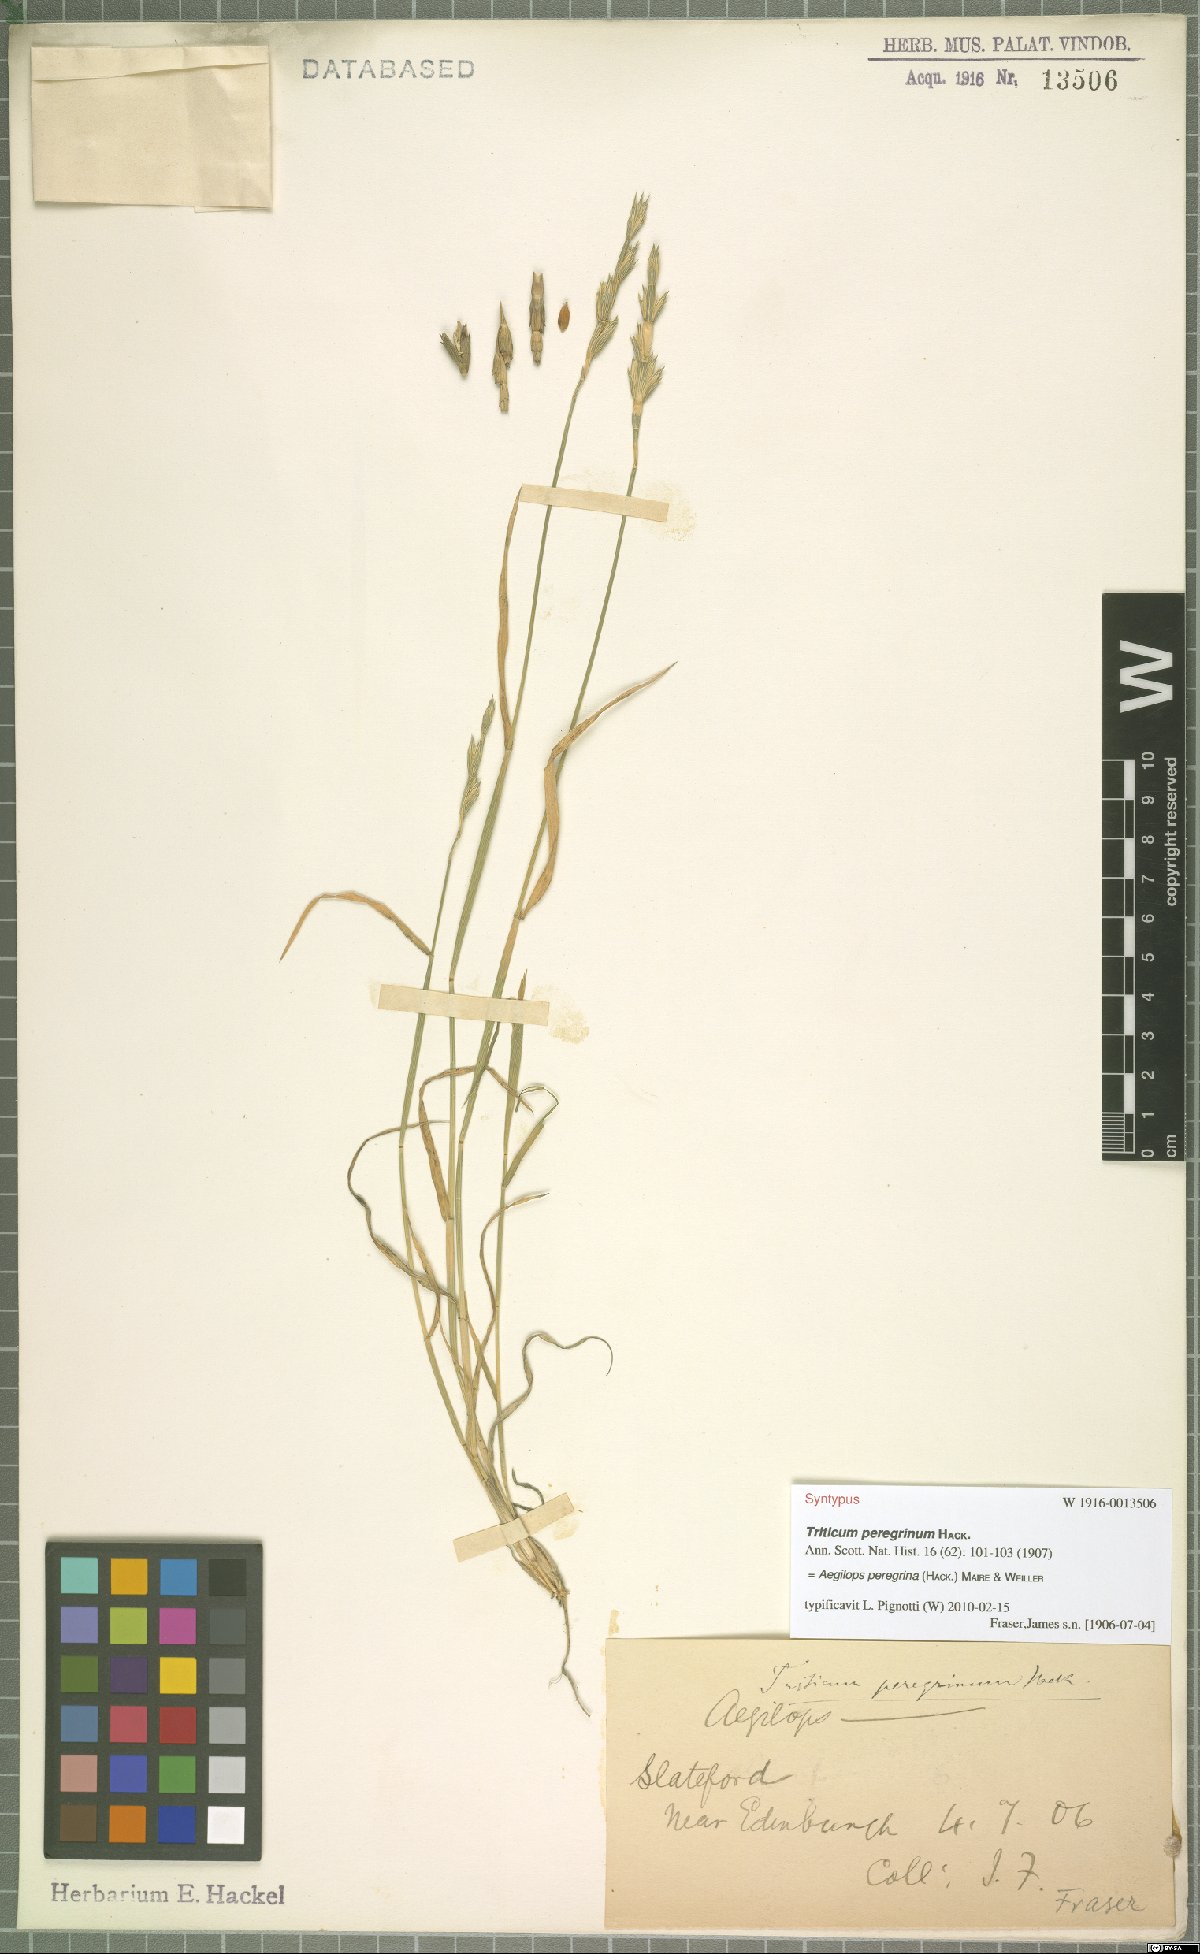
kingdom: Plantae
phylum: Tracheophyta
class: Liliopsida
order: Poales
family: Poaceae
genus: Aegilops
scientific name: Aegilops peregrina
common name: Goatgrass
